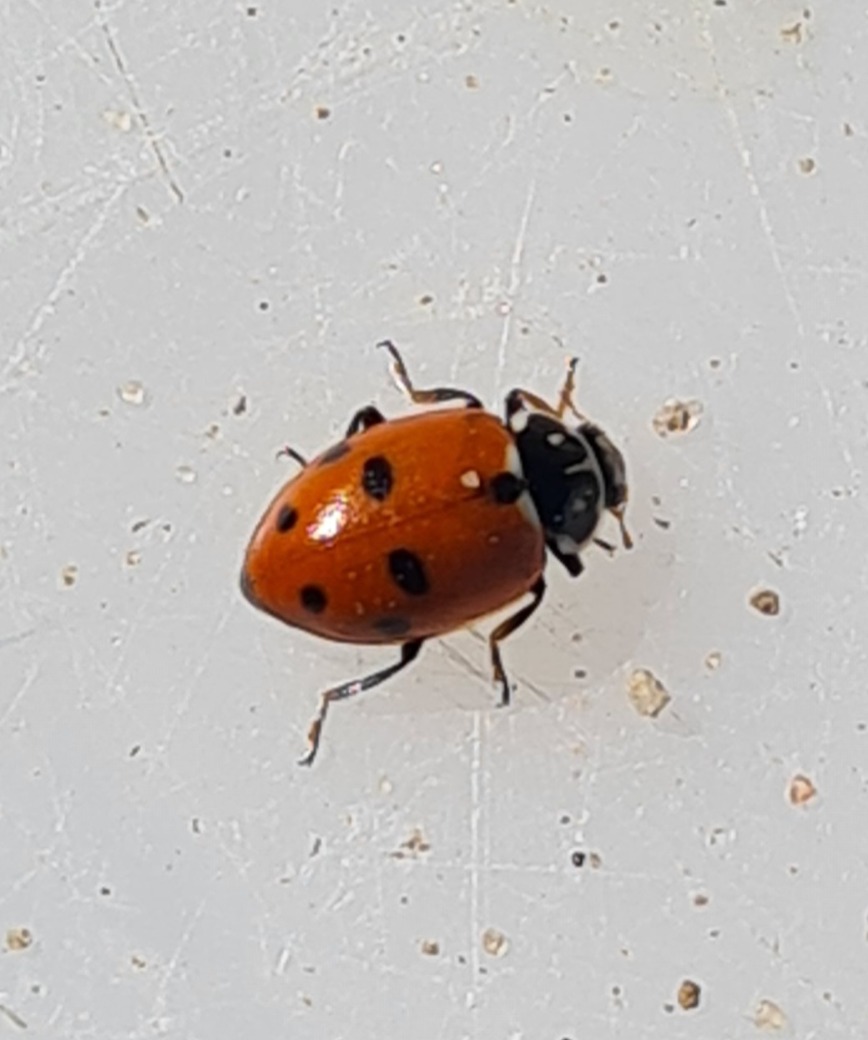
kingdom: Animalia
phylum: Arthropoda
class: Insecta
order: Coleoptera
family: Coccinellidae
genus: Hippodamia
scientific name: Hippodamia variegata
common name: Adonis' mariehøne
